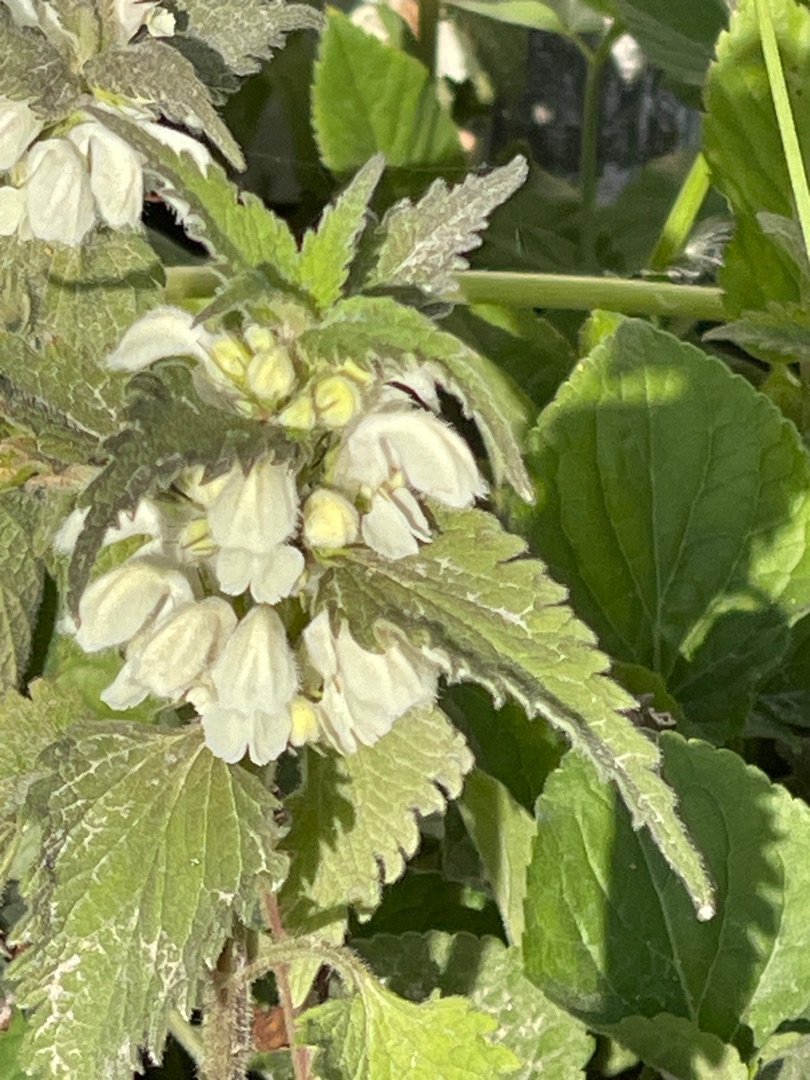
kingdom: Plantae
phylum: Tracheophyta
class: Magnoliopsida
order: Lamiales
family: Lamiaceae
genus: Lamium
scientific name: Lamium album
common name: Døvnælde
